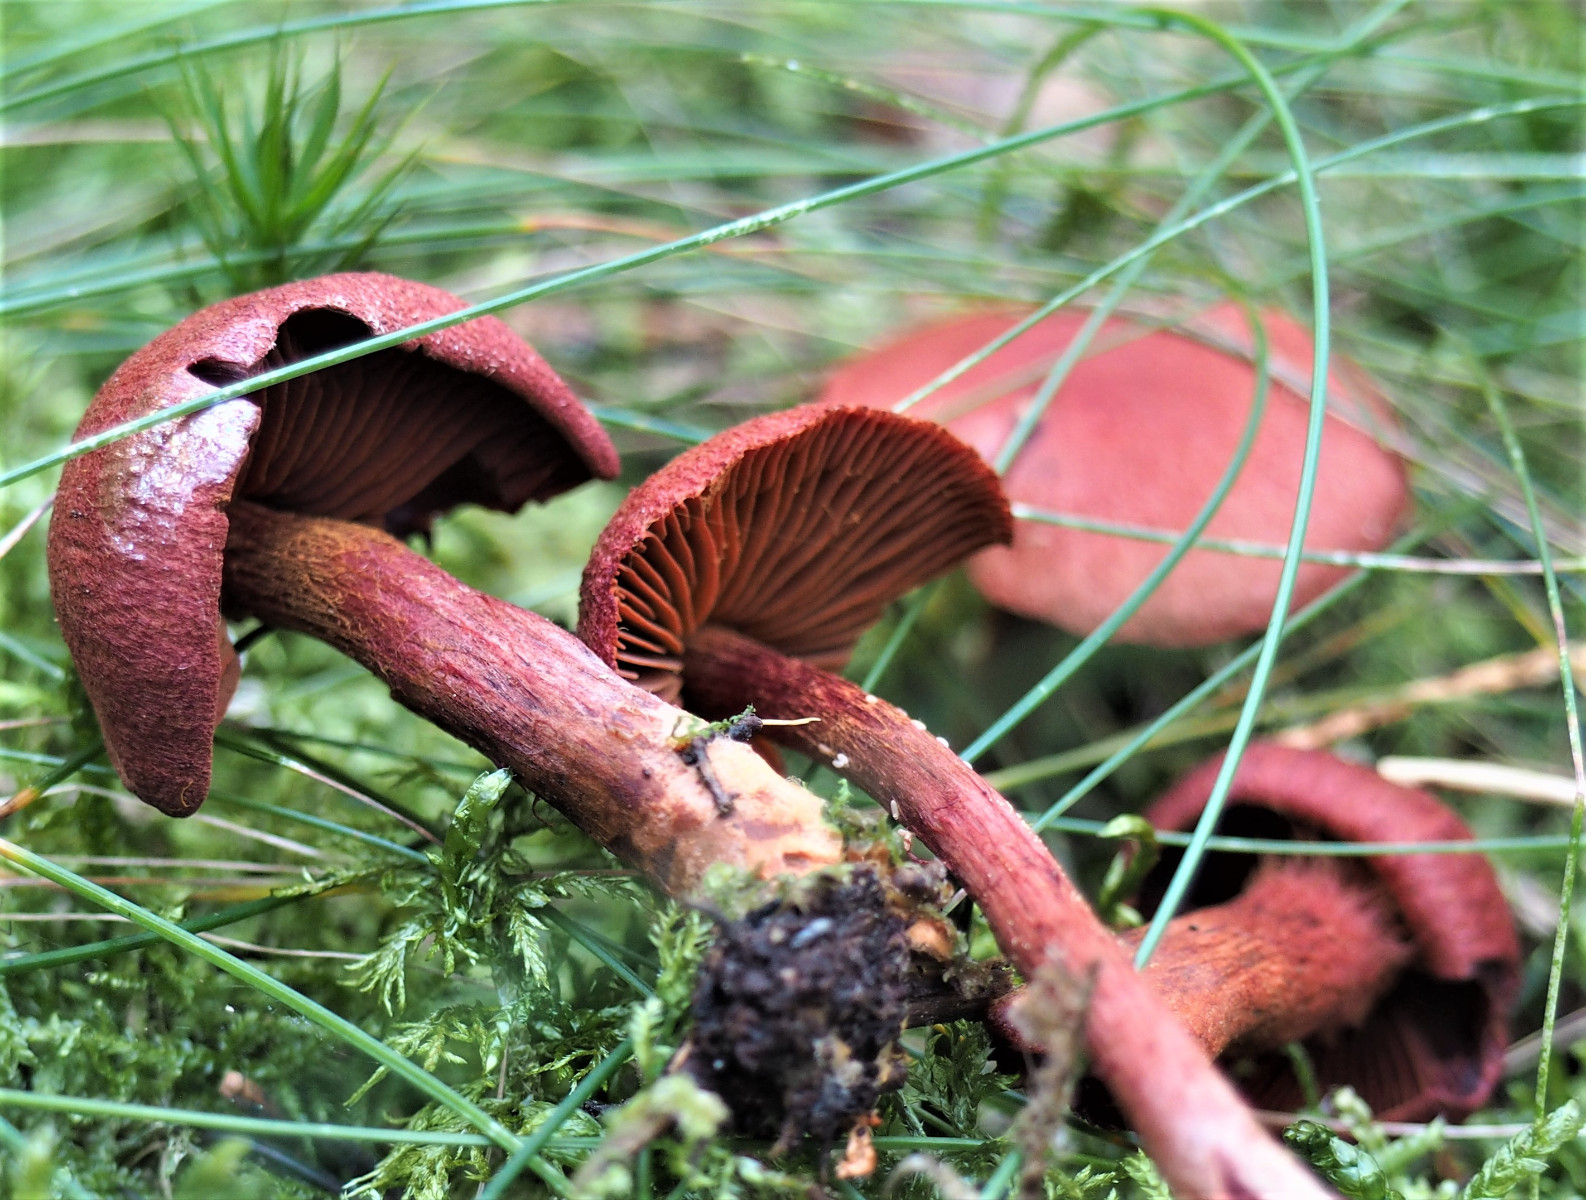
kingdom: Fungi
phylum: Basidiomycota
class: Agaricomycetes
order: Agaricales
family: Cortinariaceae
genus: Cortinarius
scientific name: Cortinarius sanguineus
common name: blodrød slørhat
